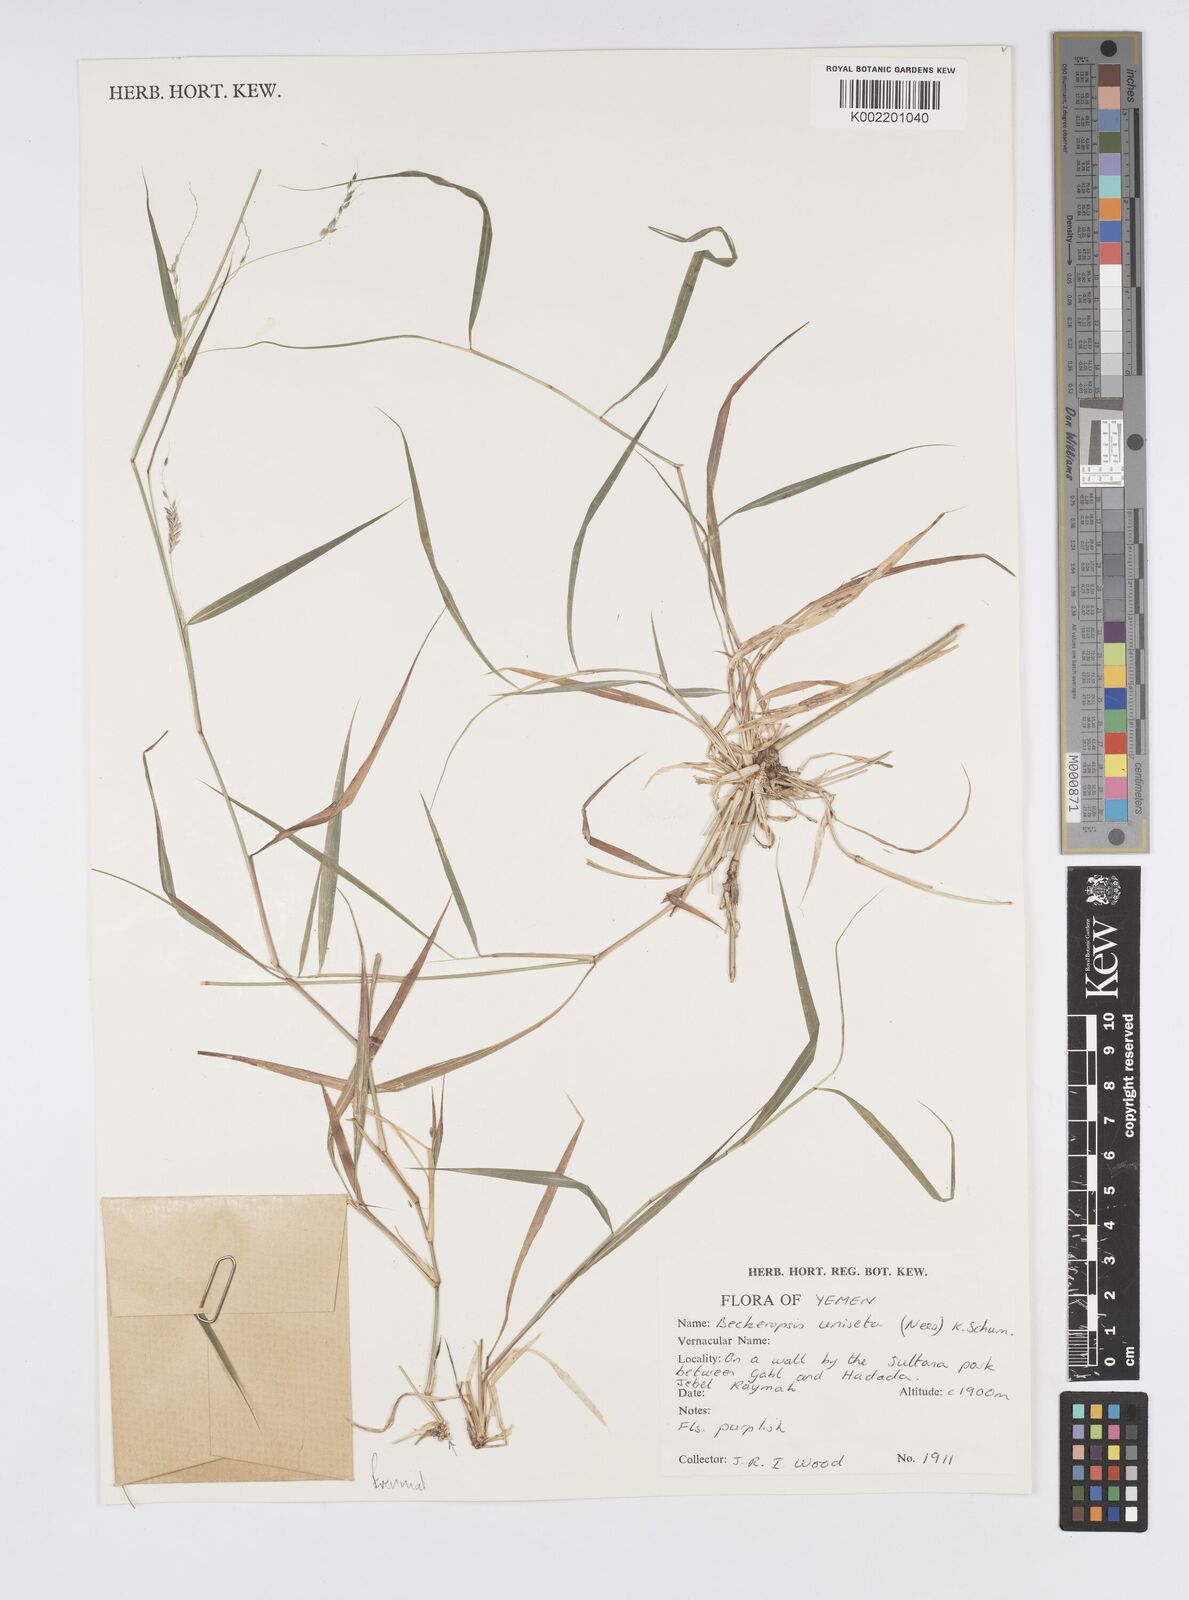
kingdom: Plantae
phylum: Tracheophyta
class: Liliopsida
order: Poales
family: Poaceae
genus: Cenchrus
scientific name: Cenchrus unisetus
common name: Natal grass
